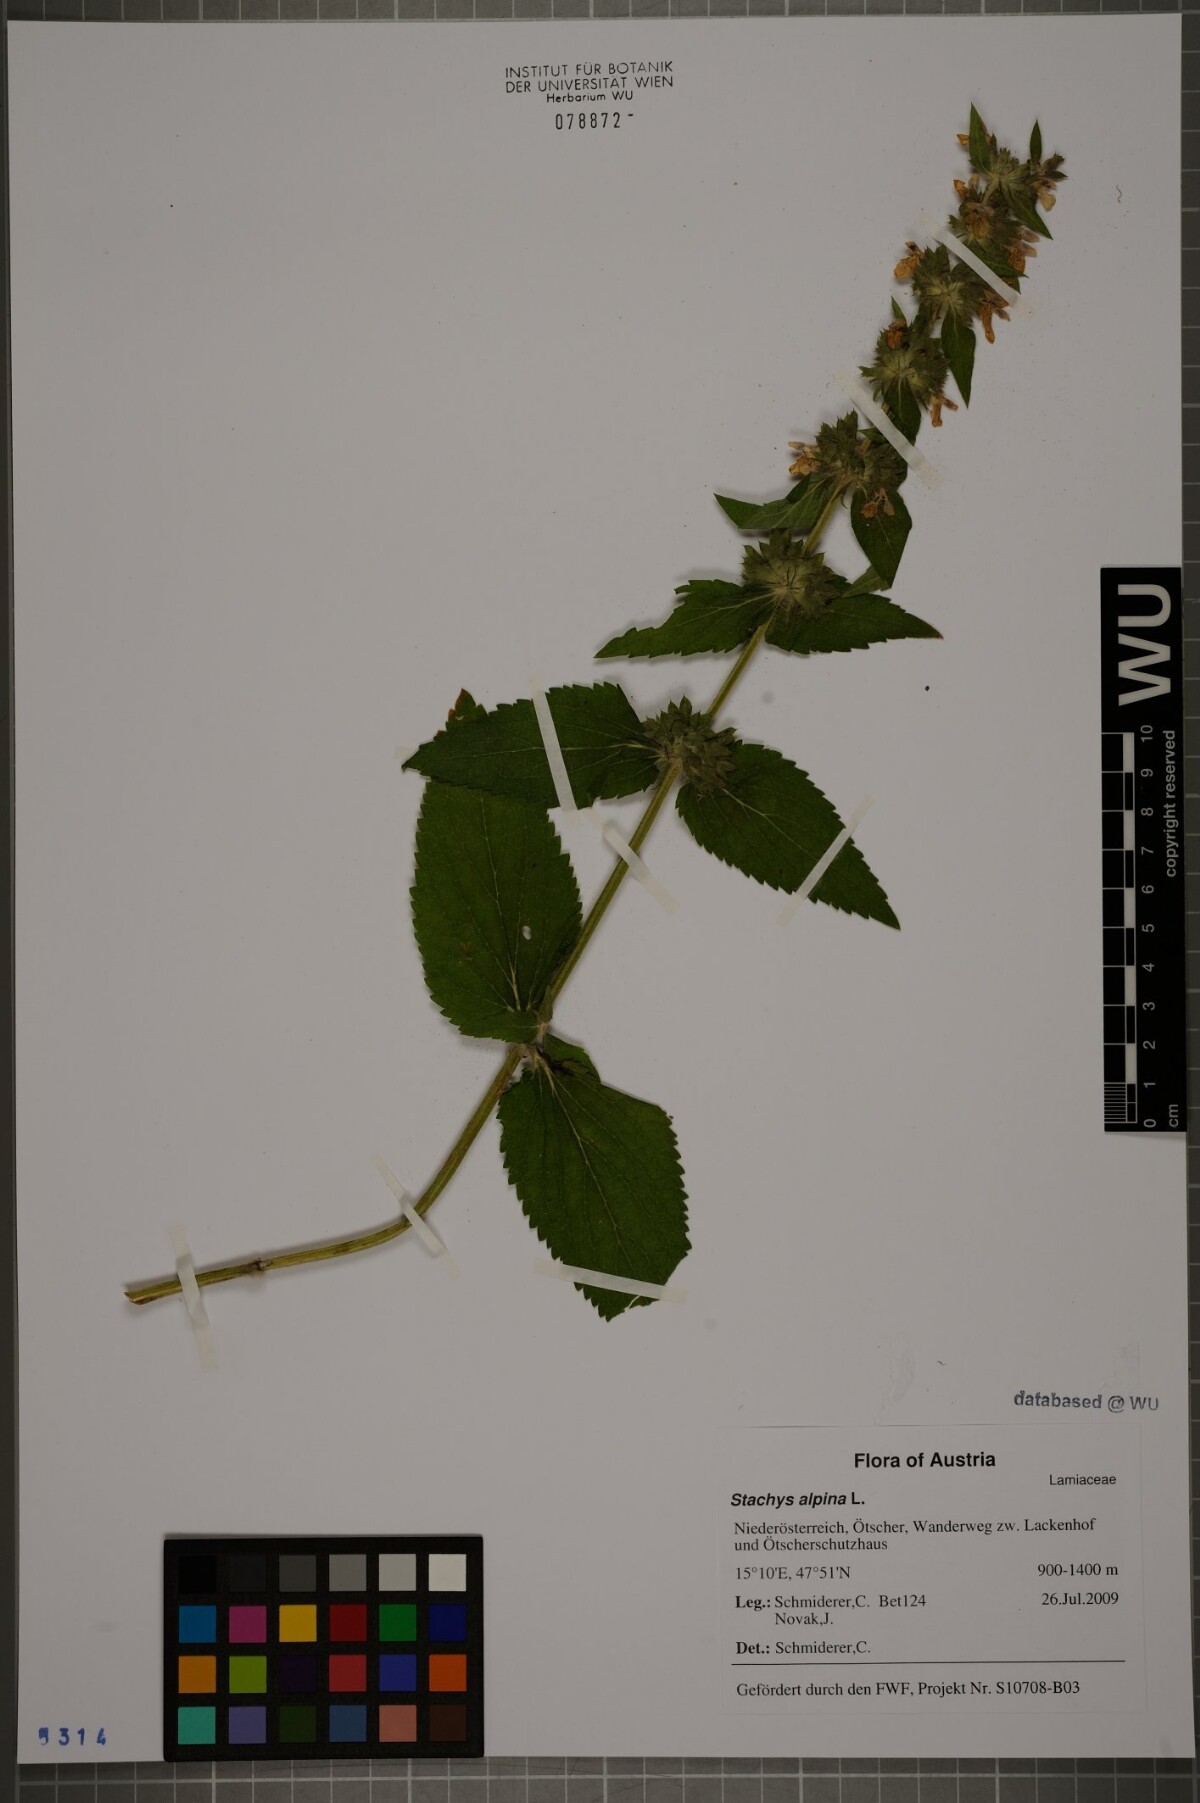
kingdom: Plantae
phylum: Tracheophyta
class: Magnoliopsida
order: Lamiales
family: Lamiaceae
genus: Stachys
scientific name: Stachys alpina
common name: Limestone woundwort
